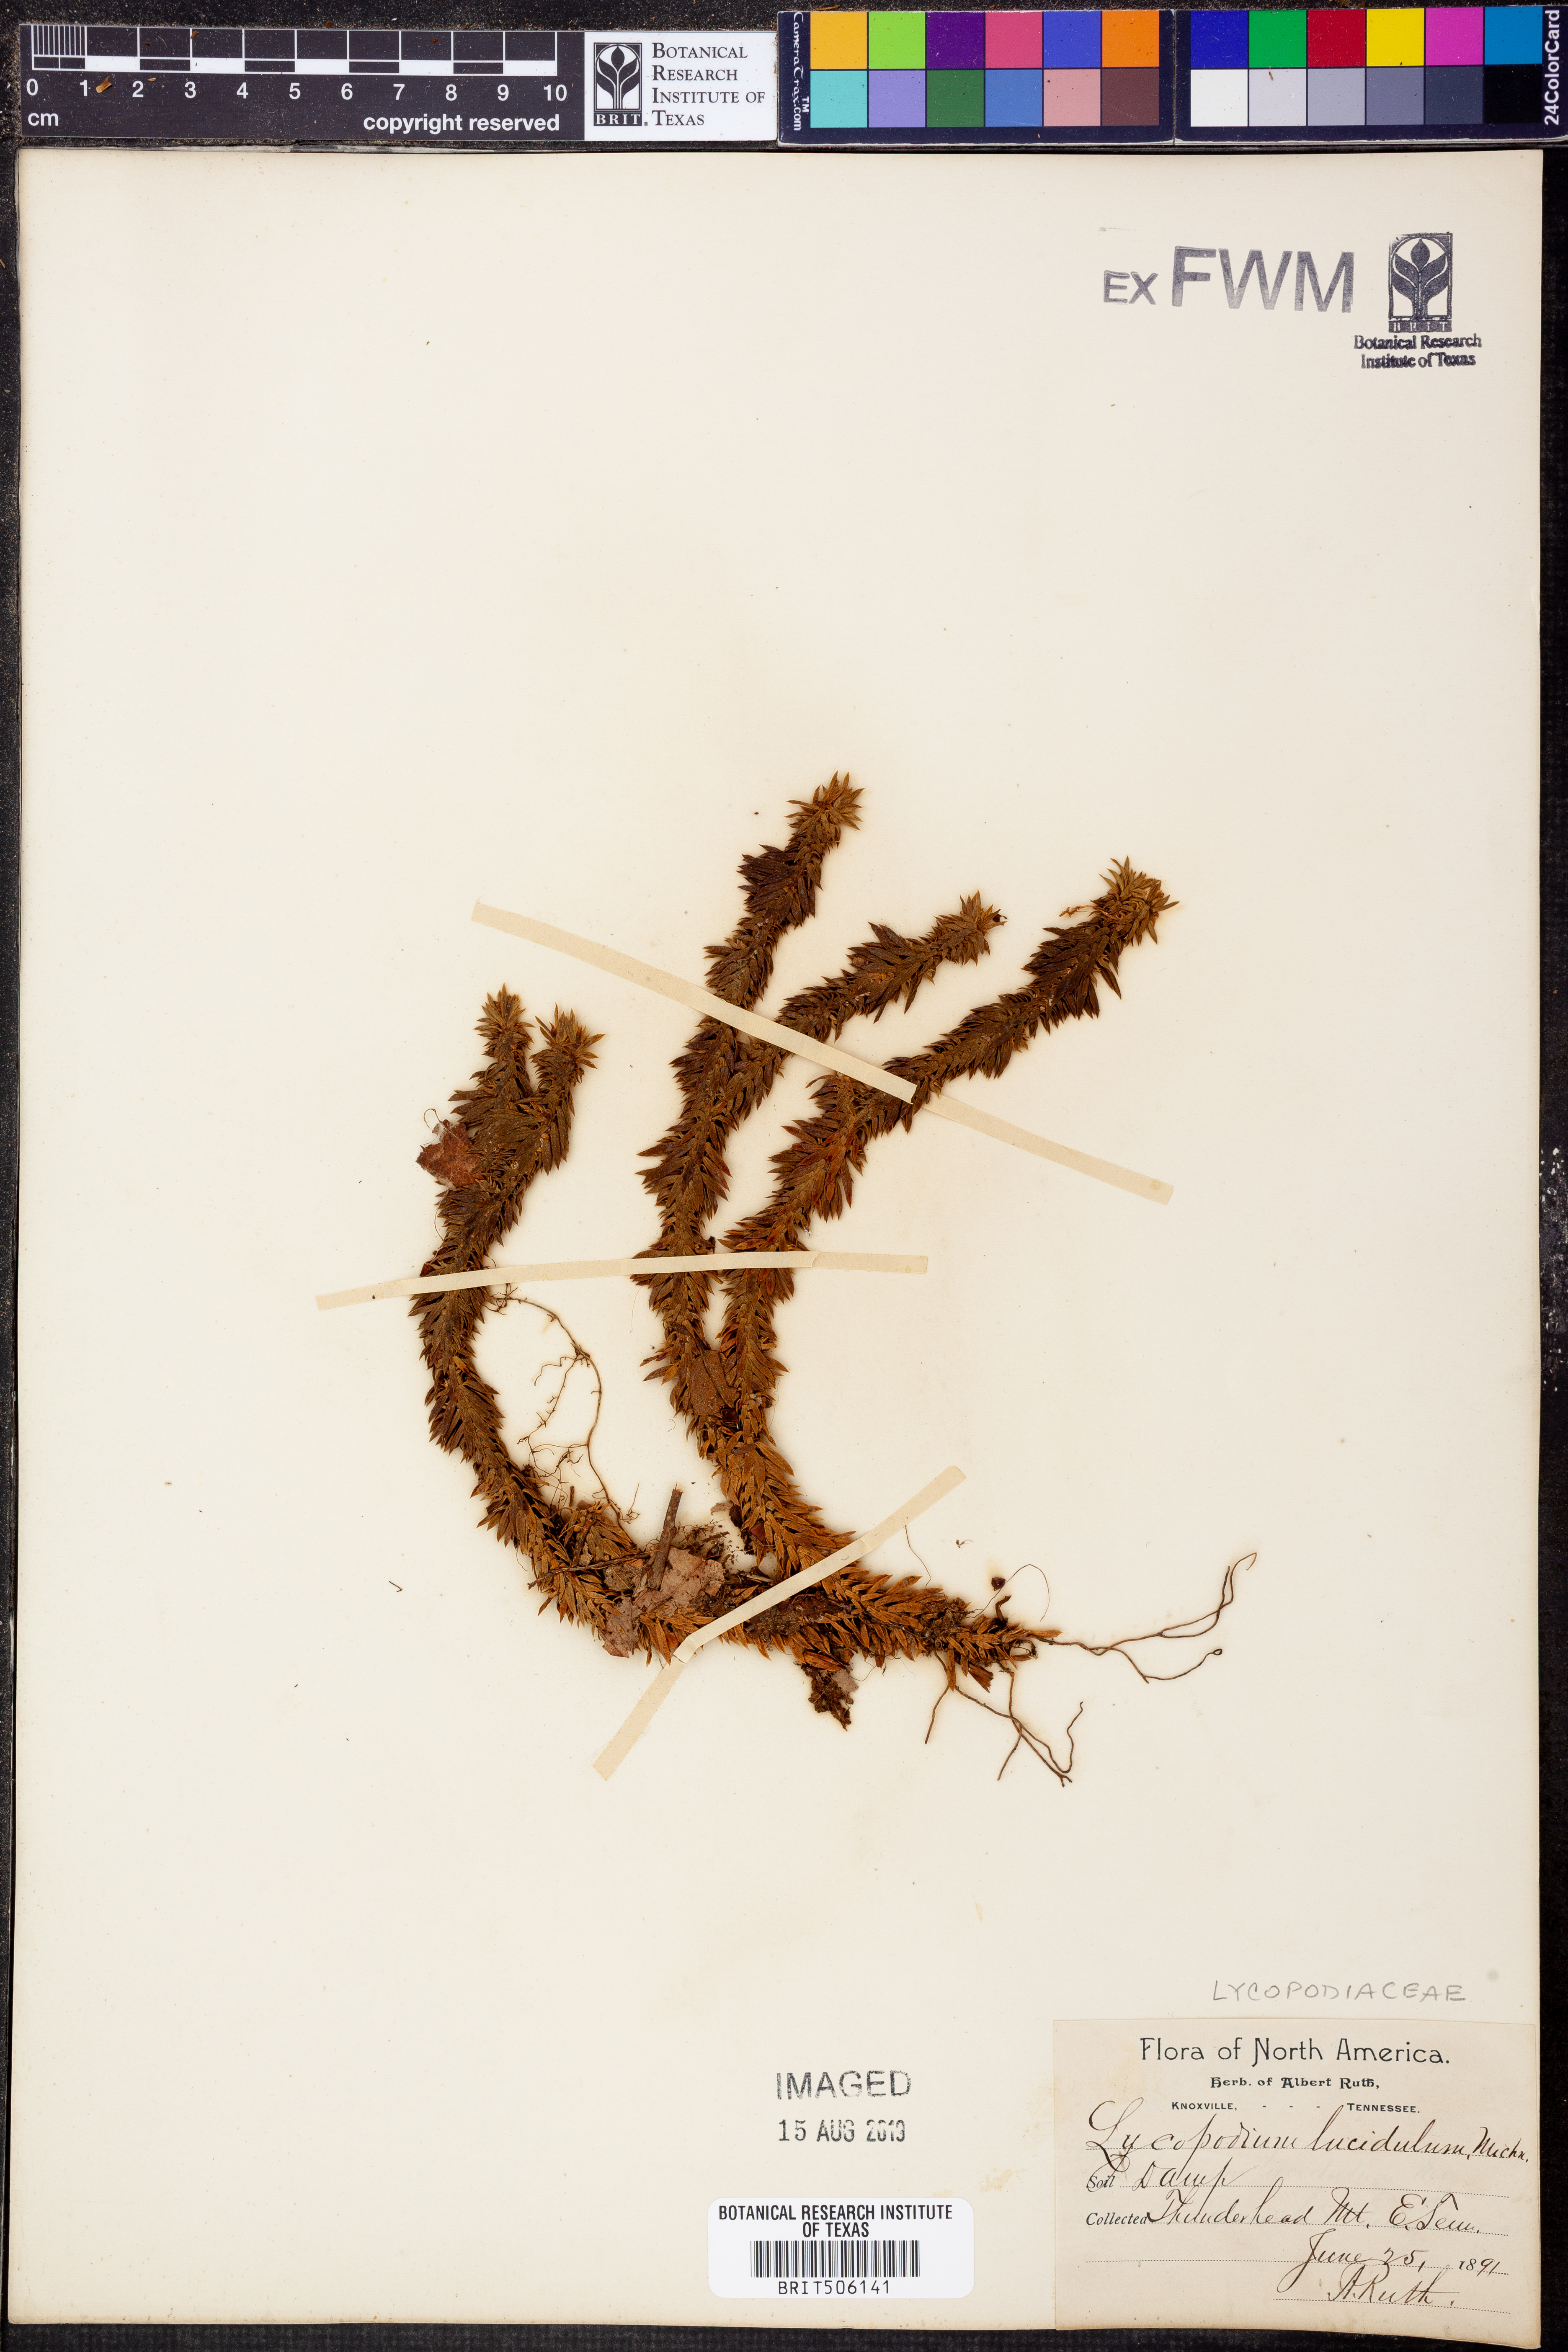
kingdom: Plantae
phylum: Tracheophyta
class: Lycopodiopsida
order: Lycopodiales
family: Lycopodiaceae
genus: Huperzia
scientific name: Huperzia lucidula
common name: Shining clubmoss
